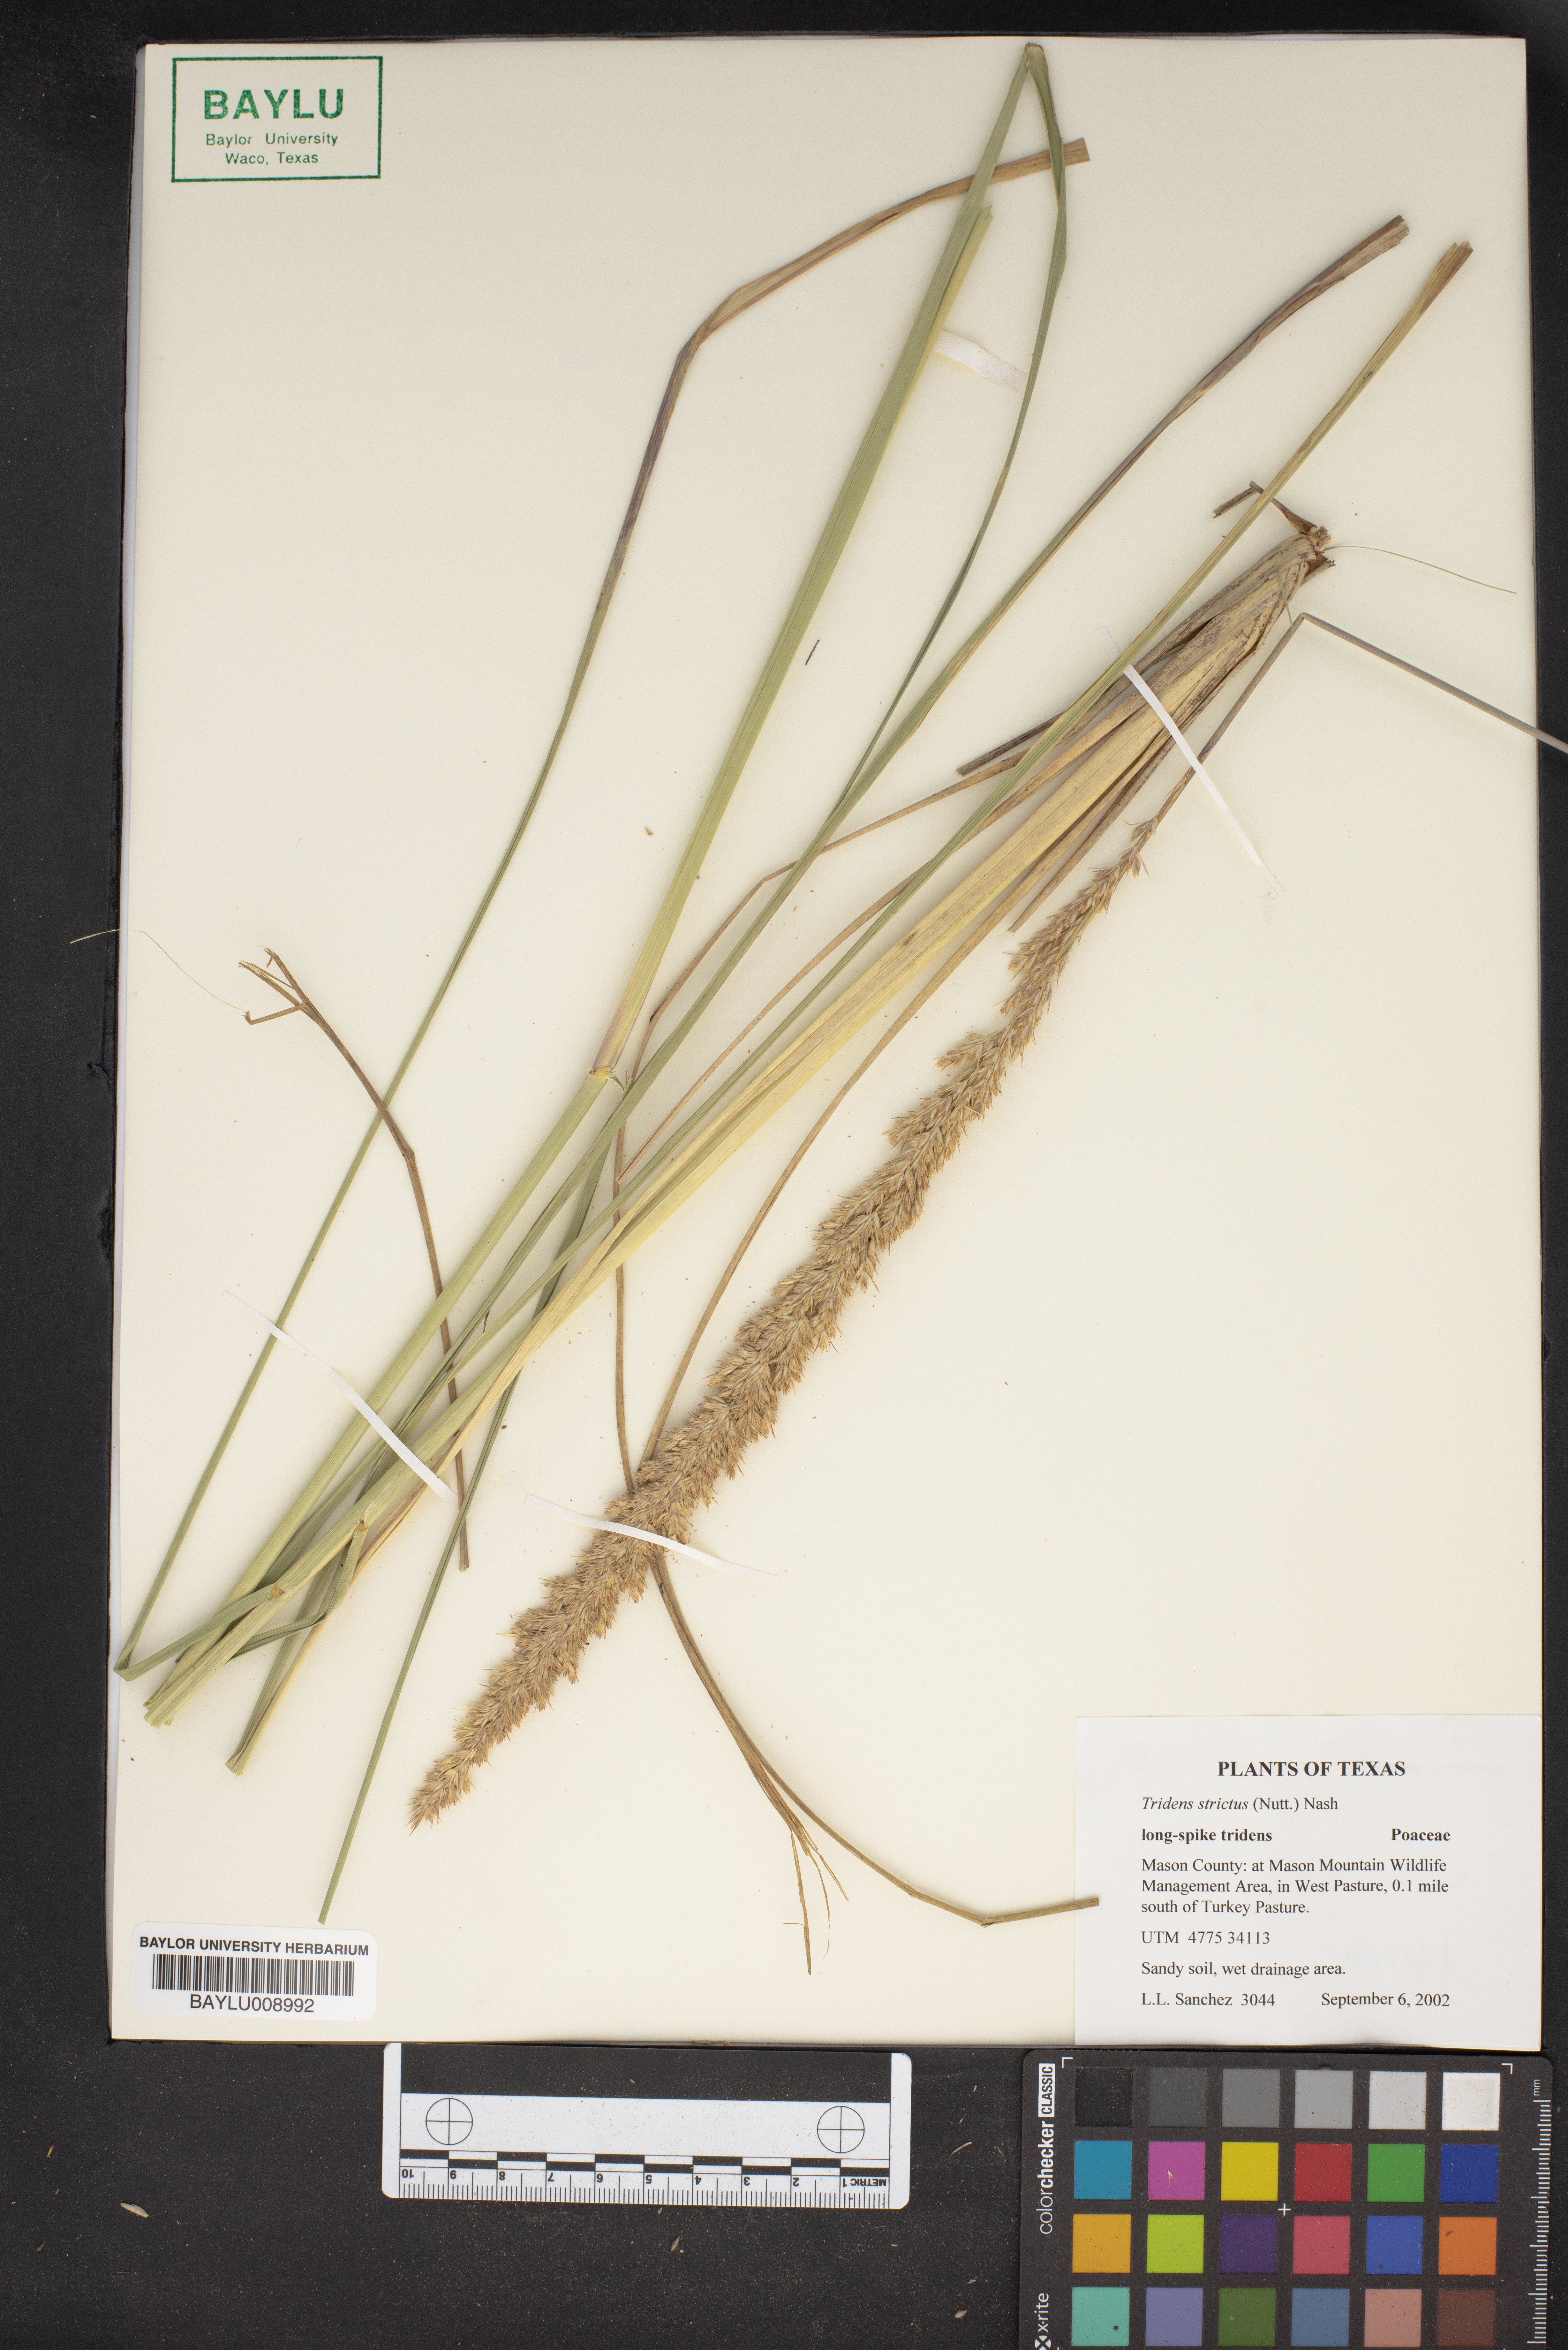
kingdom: Plantae
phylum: Tracheophyta
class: Liliopsida
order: Poales
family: Poaceae
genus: Tridens
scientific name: Tridens strictus
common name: Long-spike tridens
